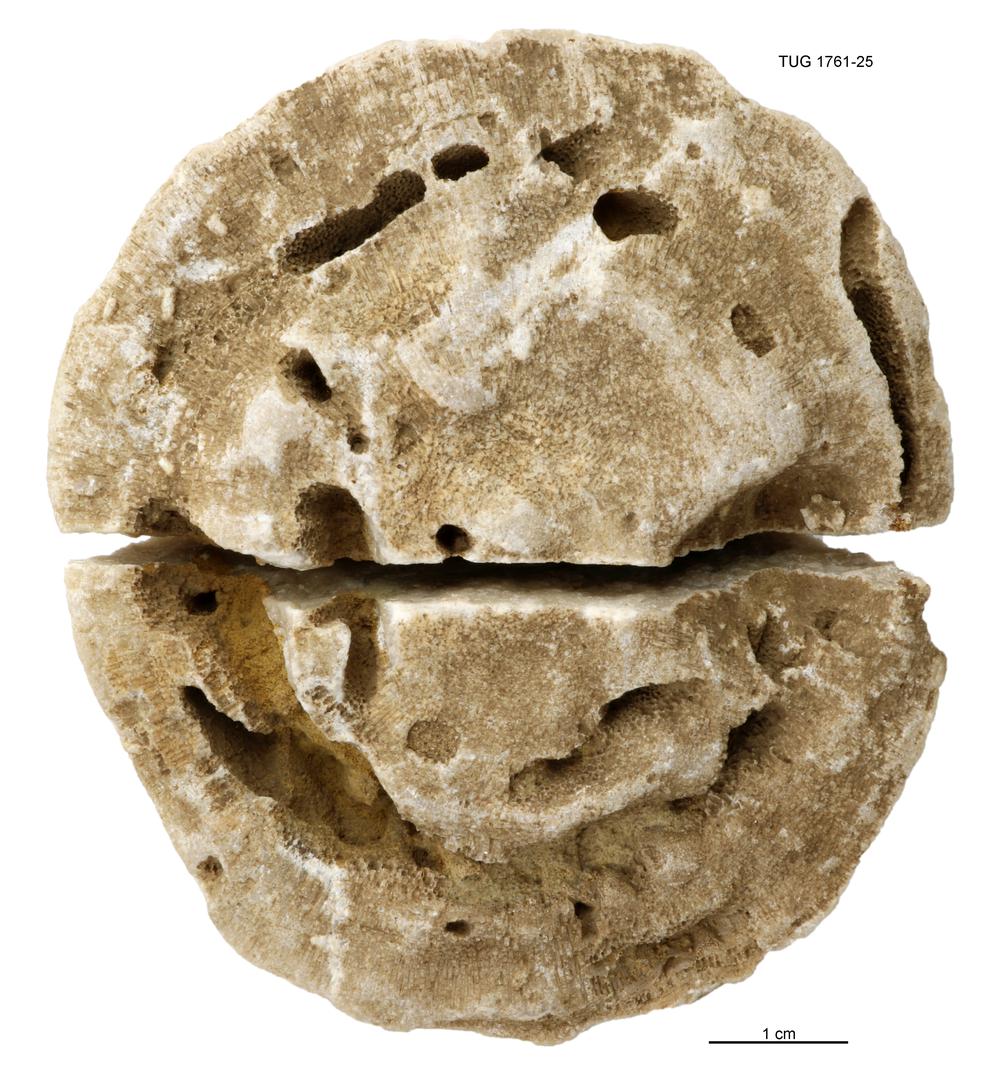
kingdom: Animalia
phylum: Bryozoa
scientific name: Bryozoa
